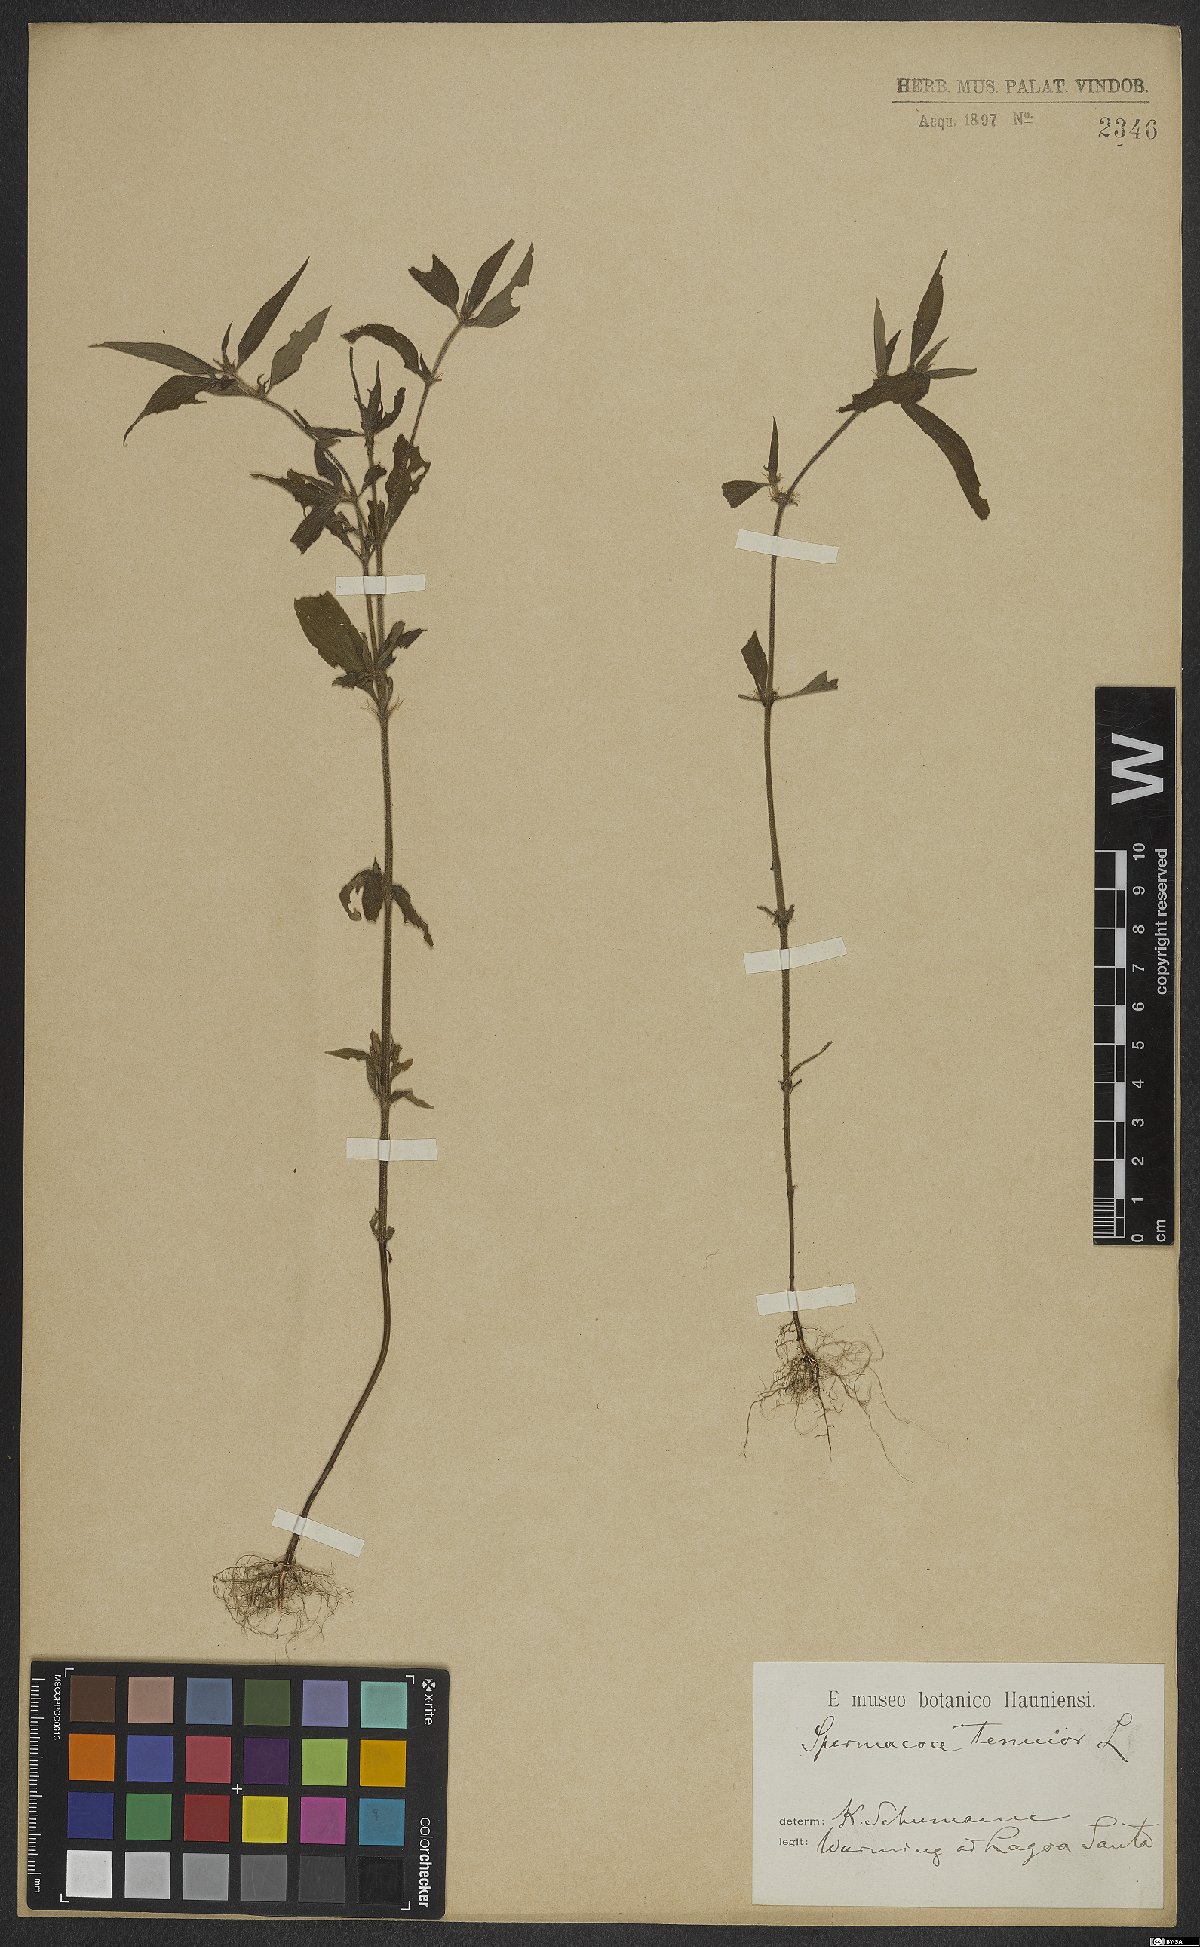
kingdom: Plantae
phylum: Tracheophyta
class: Magnoliopsida
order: Gentianales
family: Rubiaceae
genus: Spermacoce
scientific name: Spermacoce tenuior
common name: River false buttonweed
